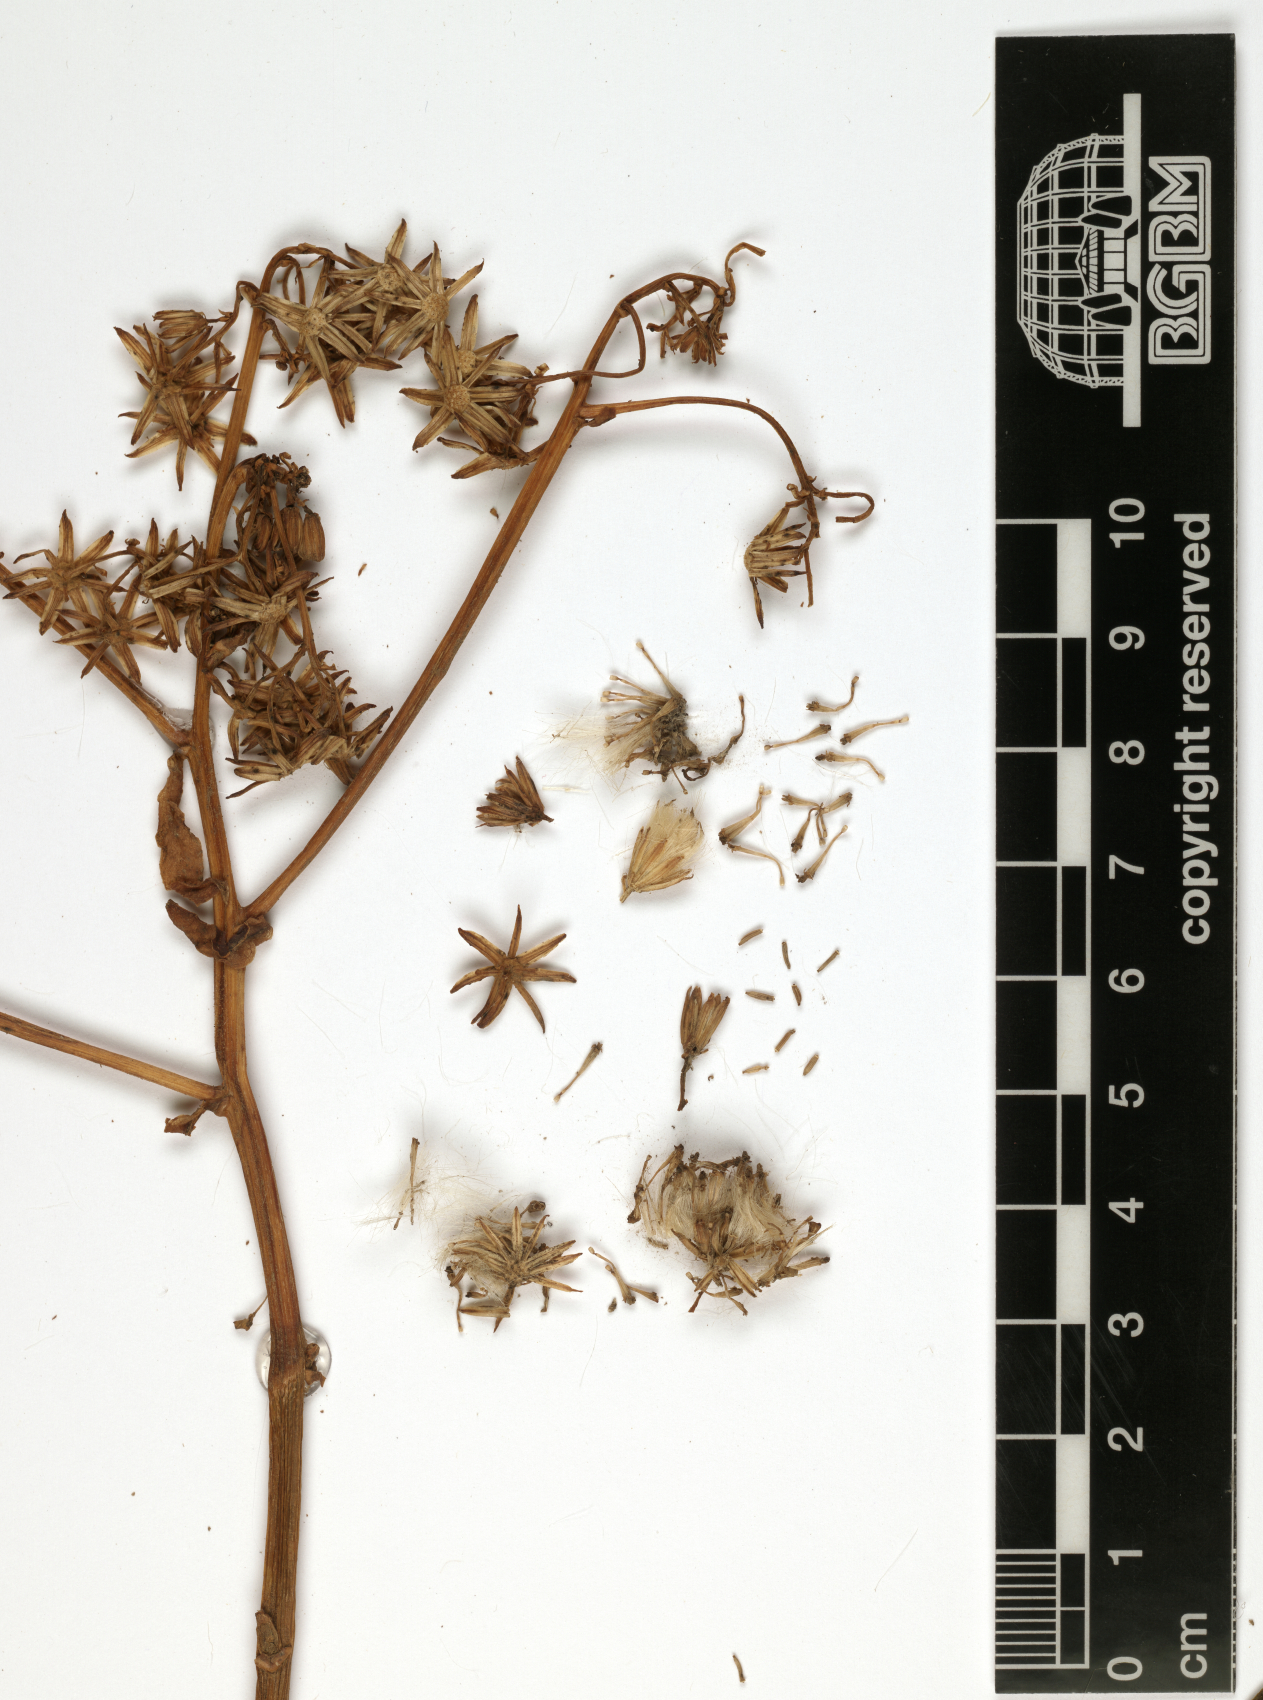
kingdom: Plantae
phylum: Tracheophyta
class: Magnoliopsida
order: Asterales
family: Asteraceae
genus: Senecio
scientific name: Senecio hadiensis
